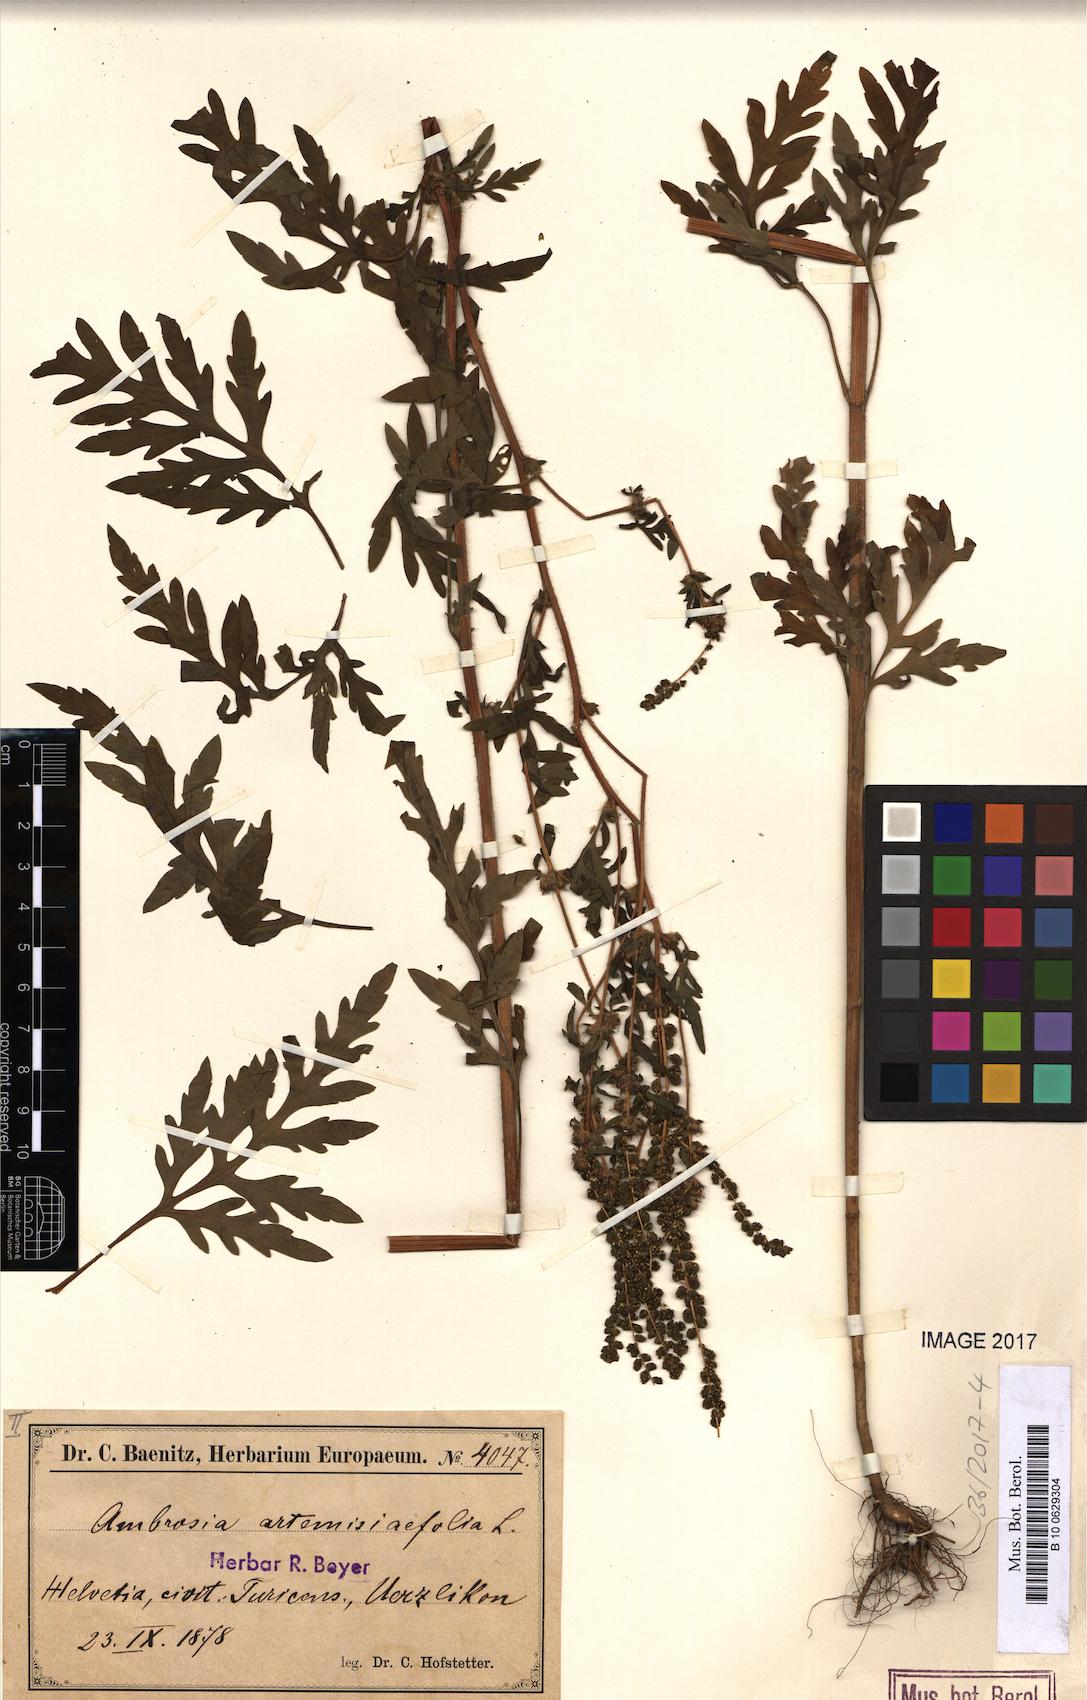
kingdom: Plantae
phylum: Tracheophyta
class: Magnoliopsida
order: Asterales
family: Asteraceae
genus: Ambrosia
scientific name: Ambrosia artemisiifolia
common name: Annual ragweed
